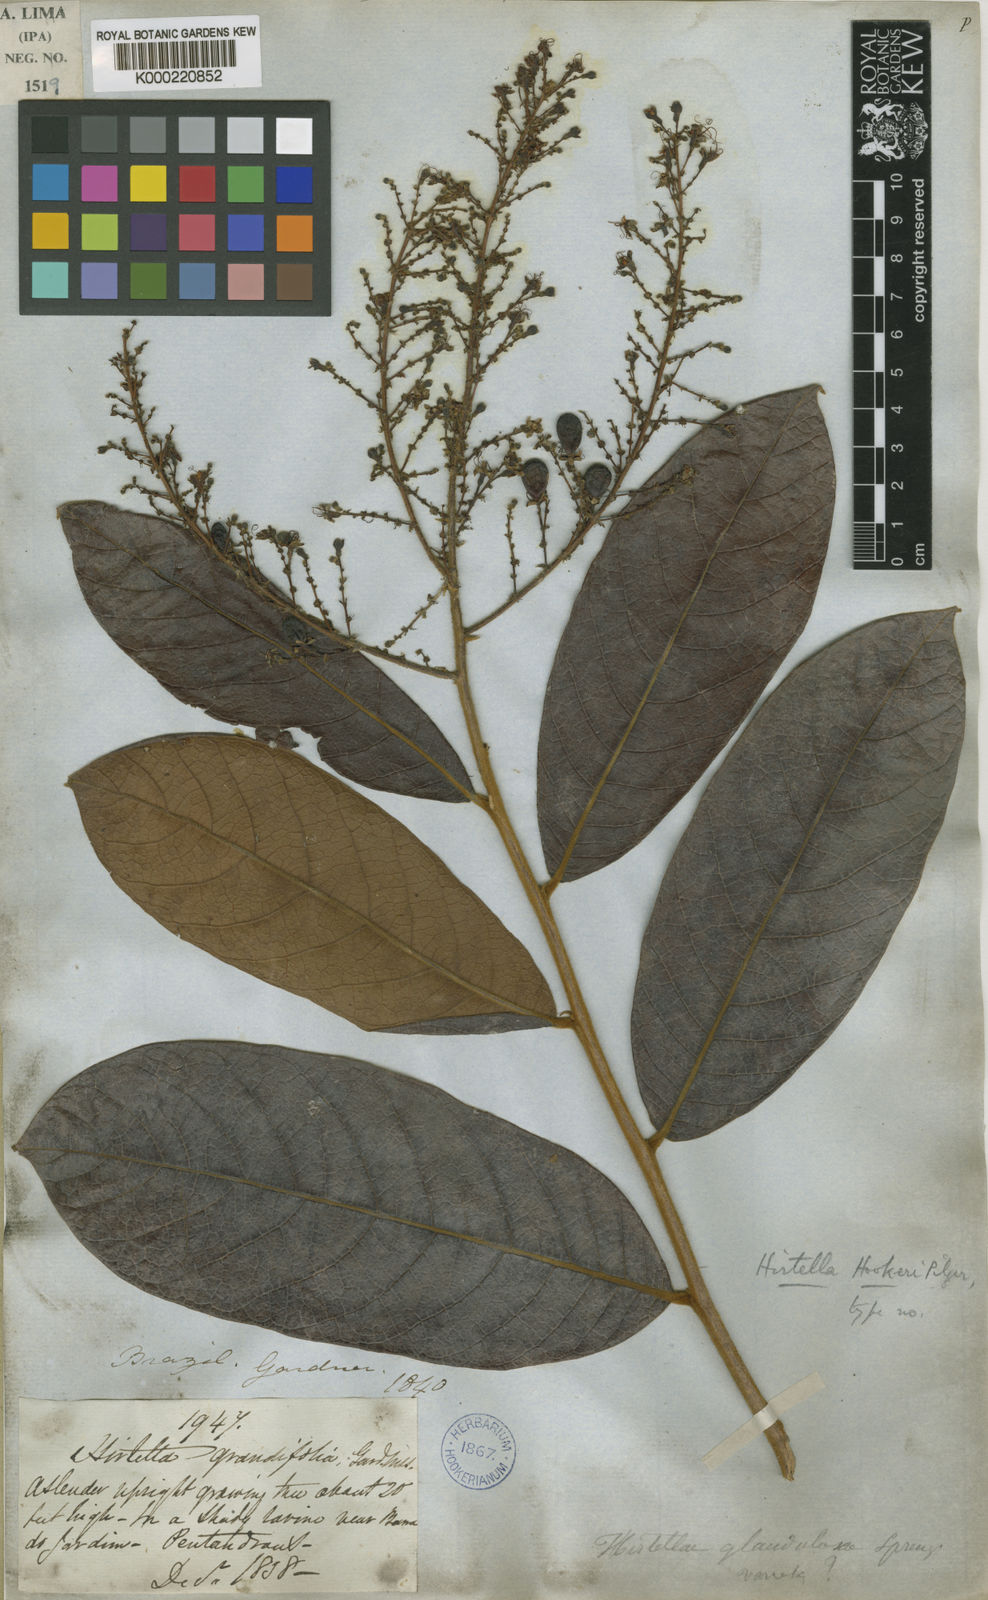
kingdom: Plantae
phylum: Tracheophyta
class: Magnoliopsida
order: Malpighiales
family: Chrysobalanaceae
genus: Hirtella
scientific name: Hirtella glandulosa
